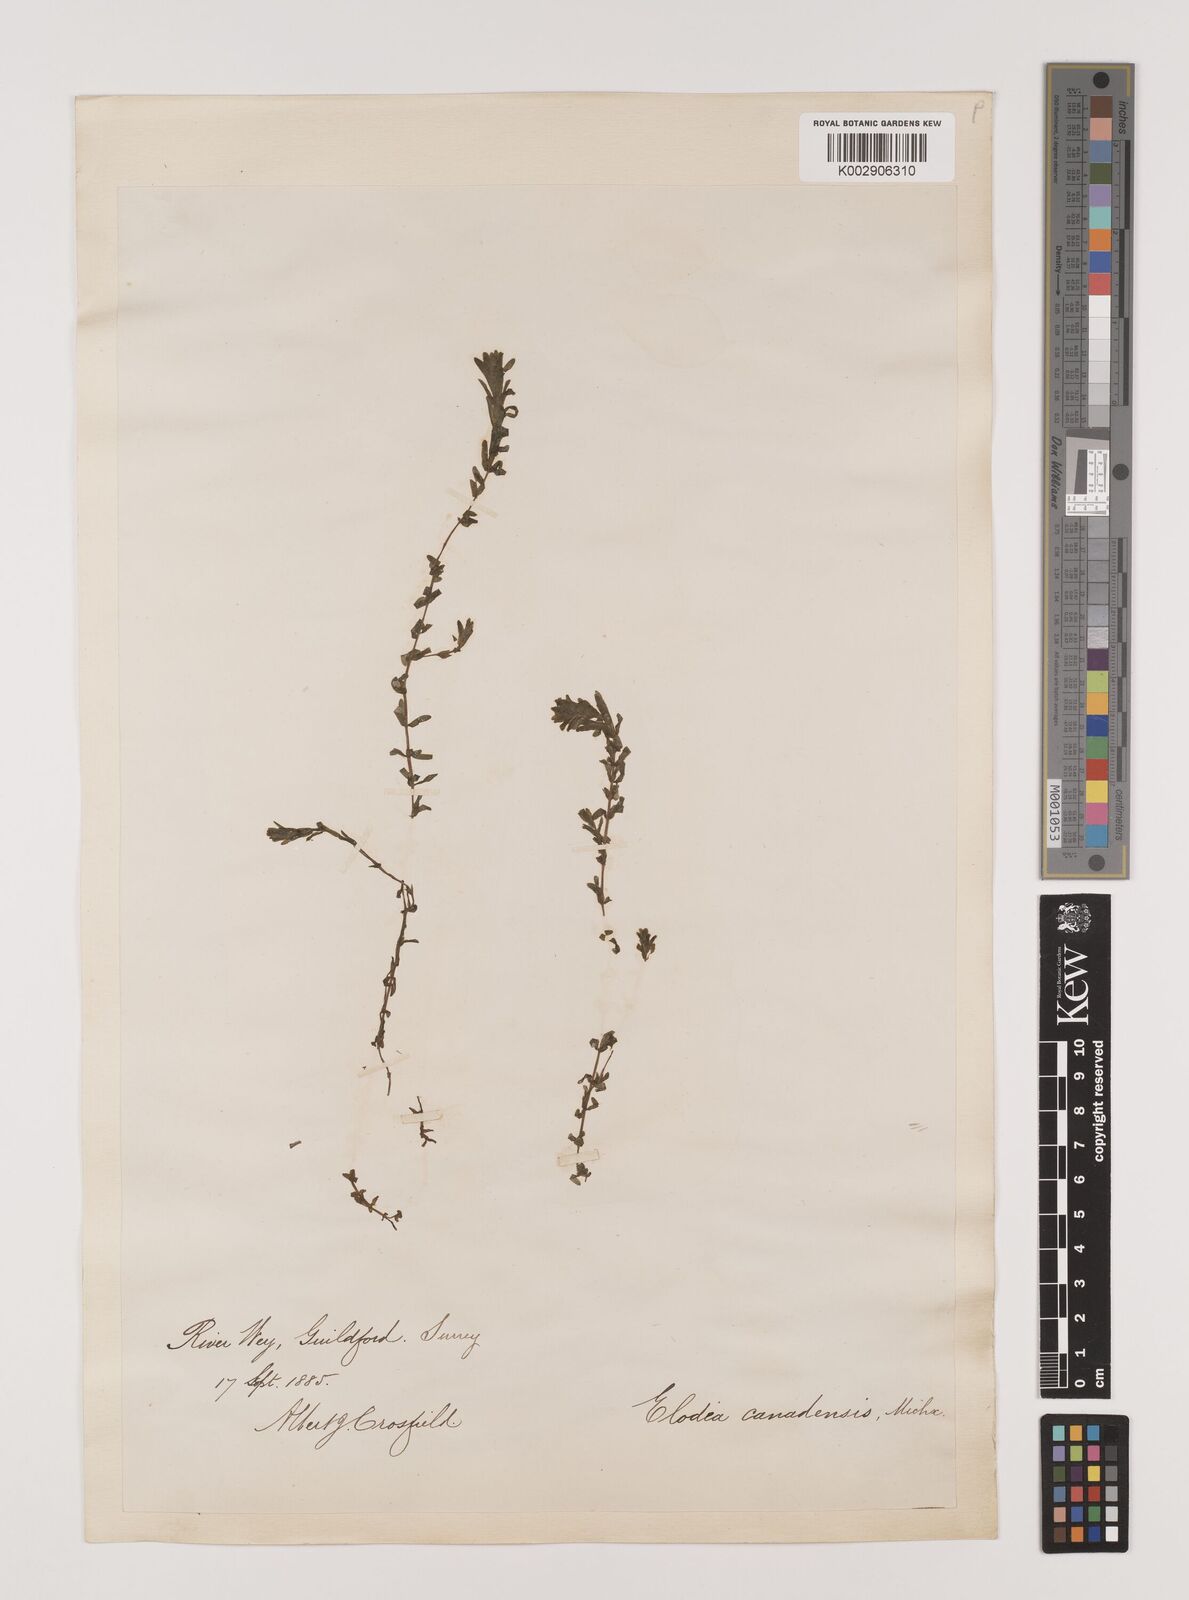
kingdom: Plantae
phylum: Tracheophyta
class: Liliopsida
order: Alismatales
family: Hydrocharitaceae
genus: Elodea
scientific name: Elodea canadensis
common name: Canadian waterweed
